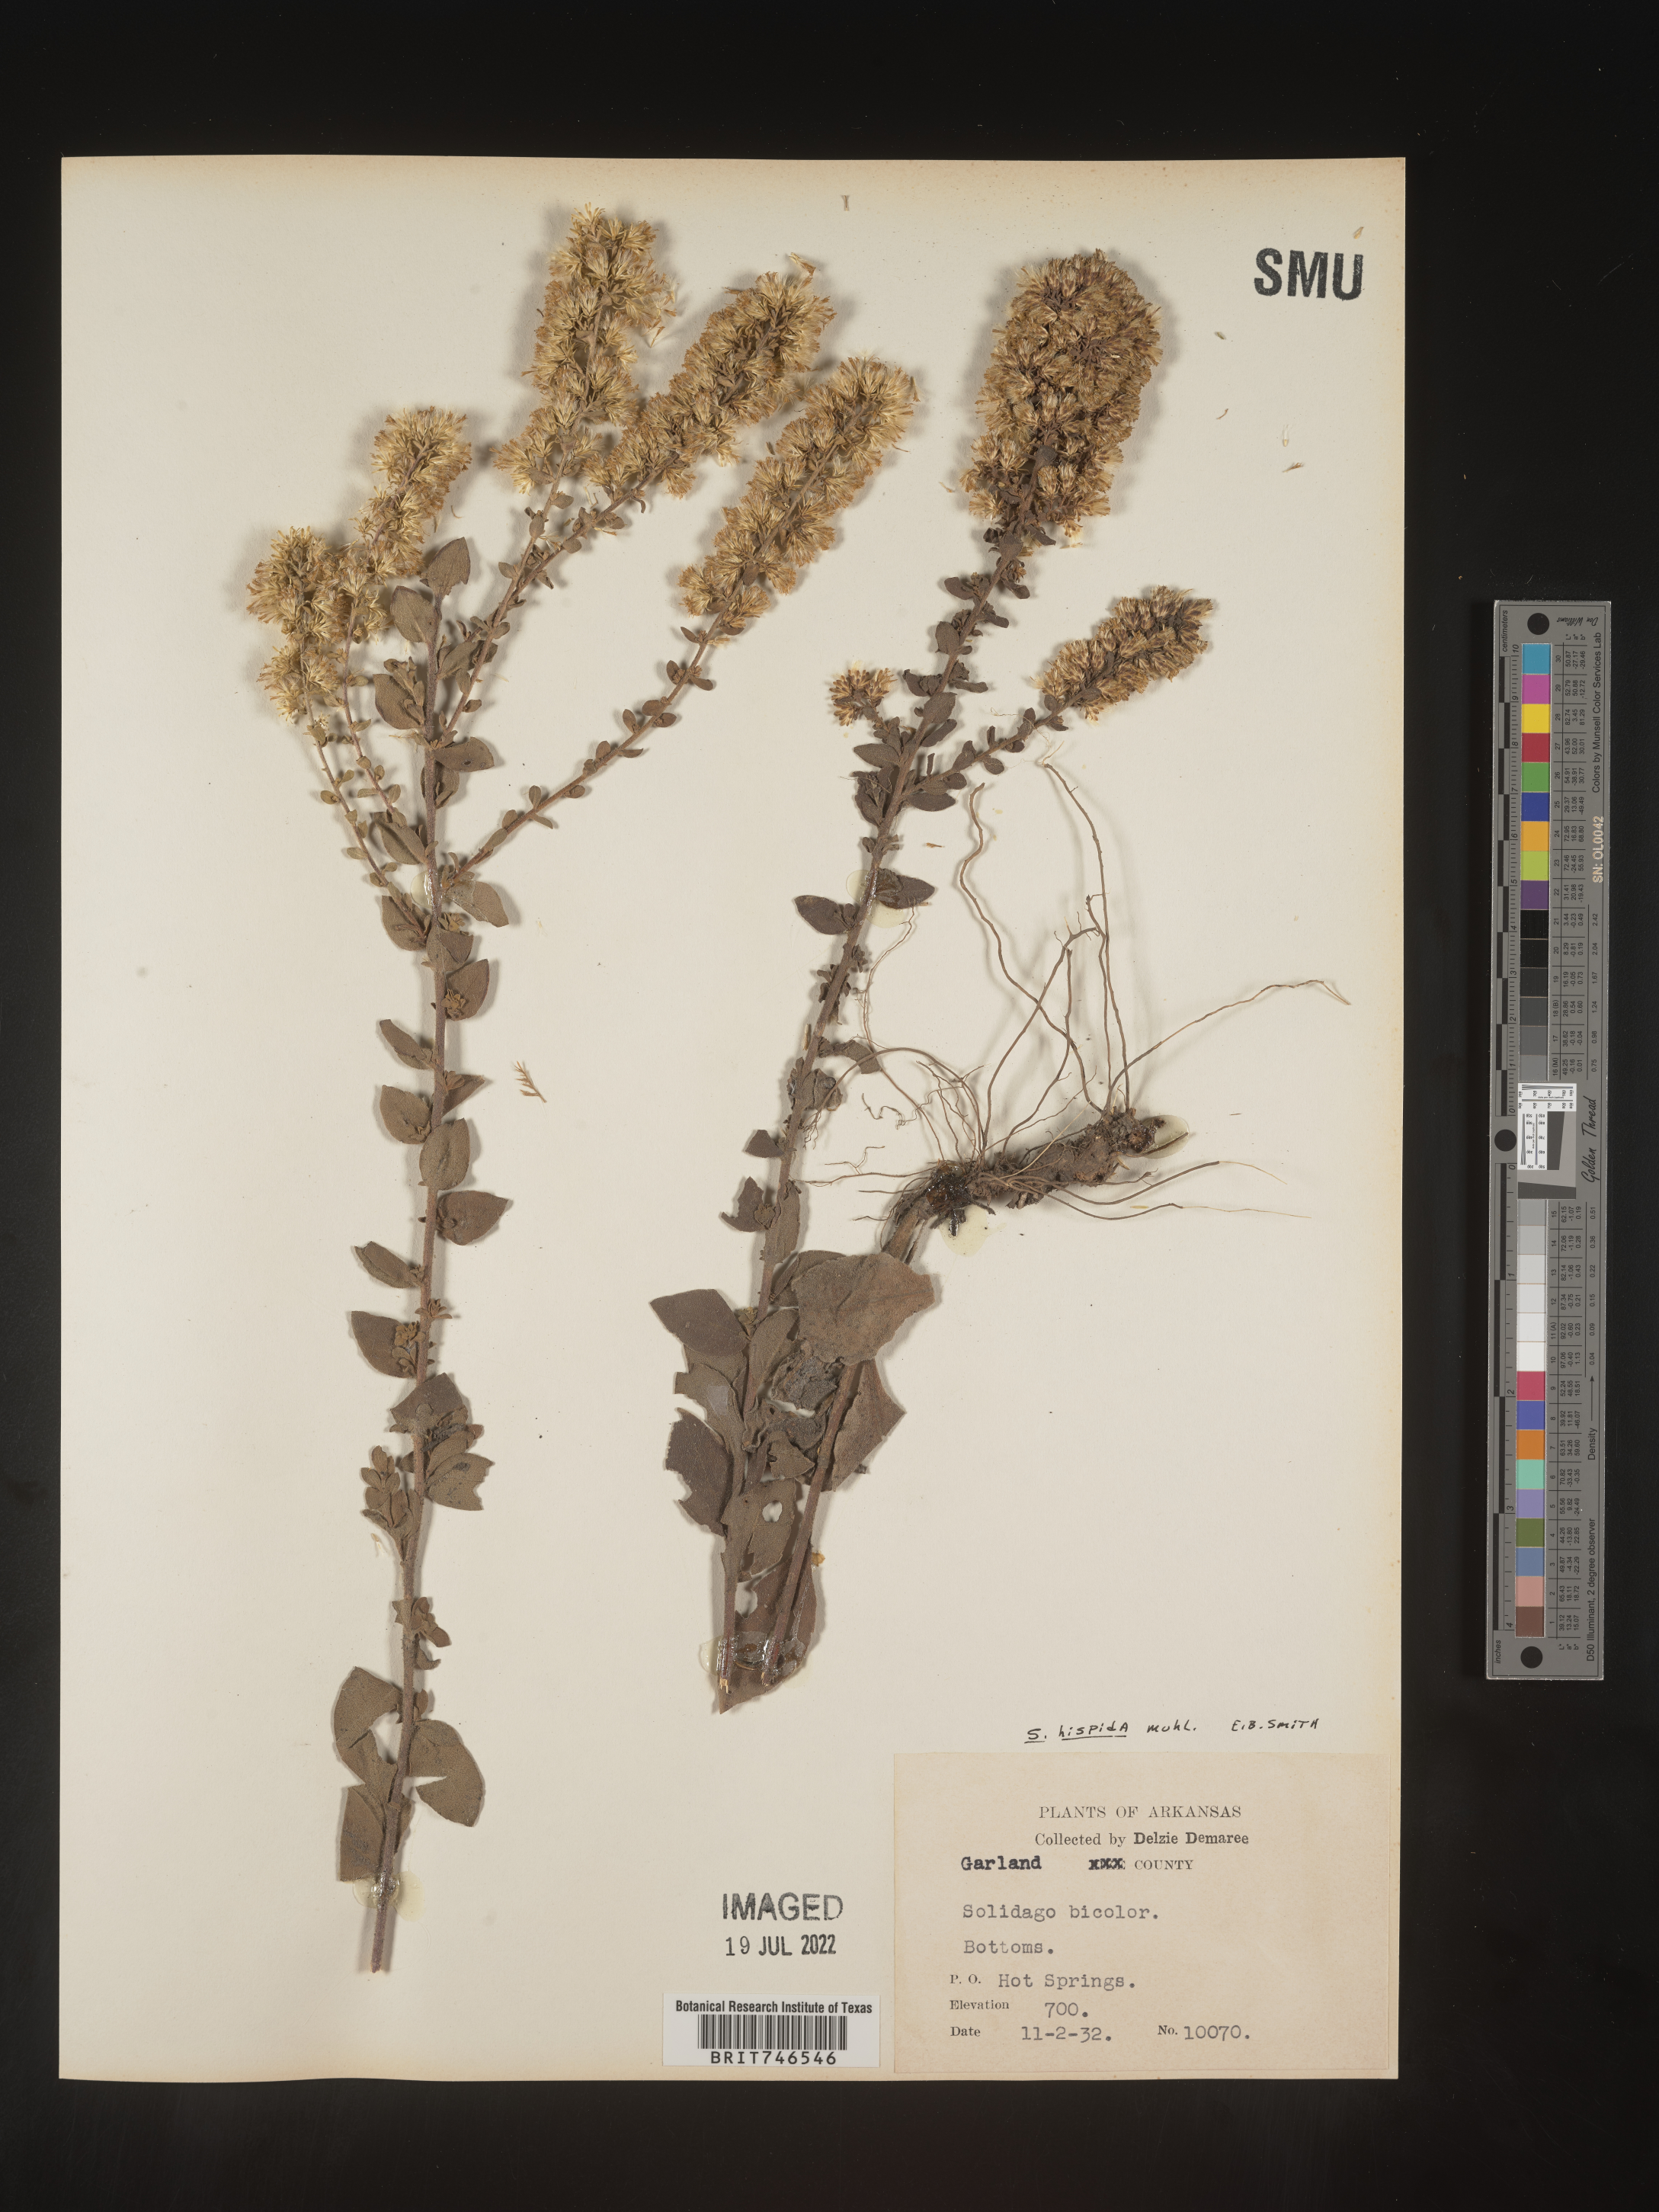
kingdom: Plantae
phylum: Tracheophyta
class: Magnoliopsida
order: Asterales
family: Asteraceae
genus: Solidago
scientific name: Solidago hispida
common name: Hairy goldenrod
